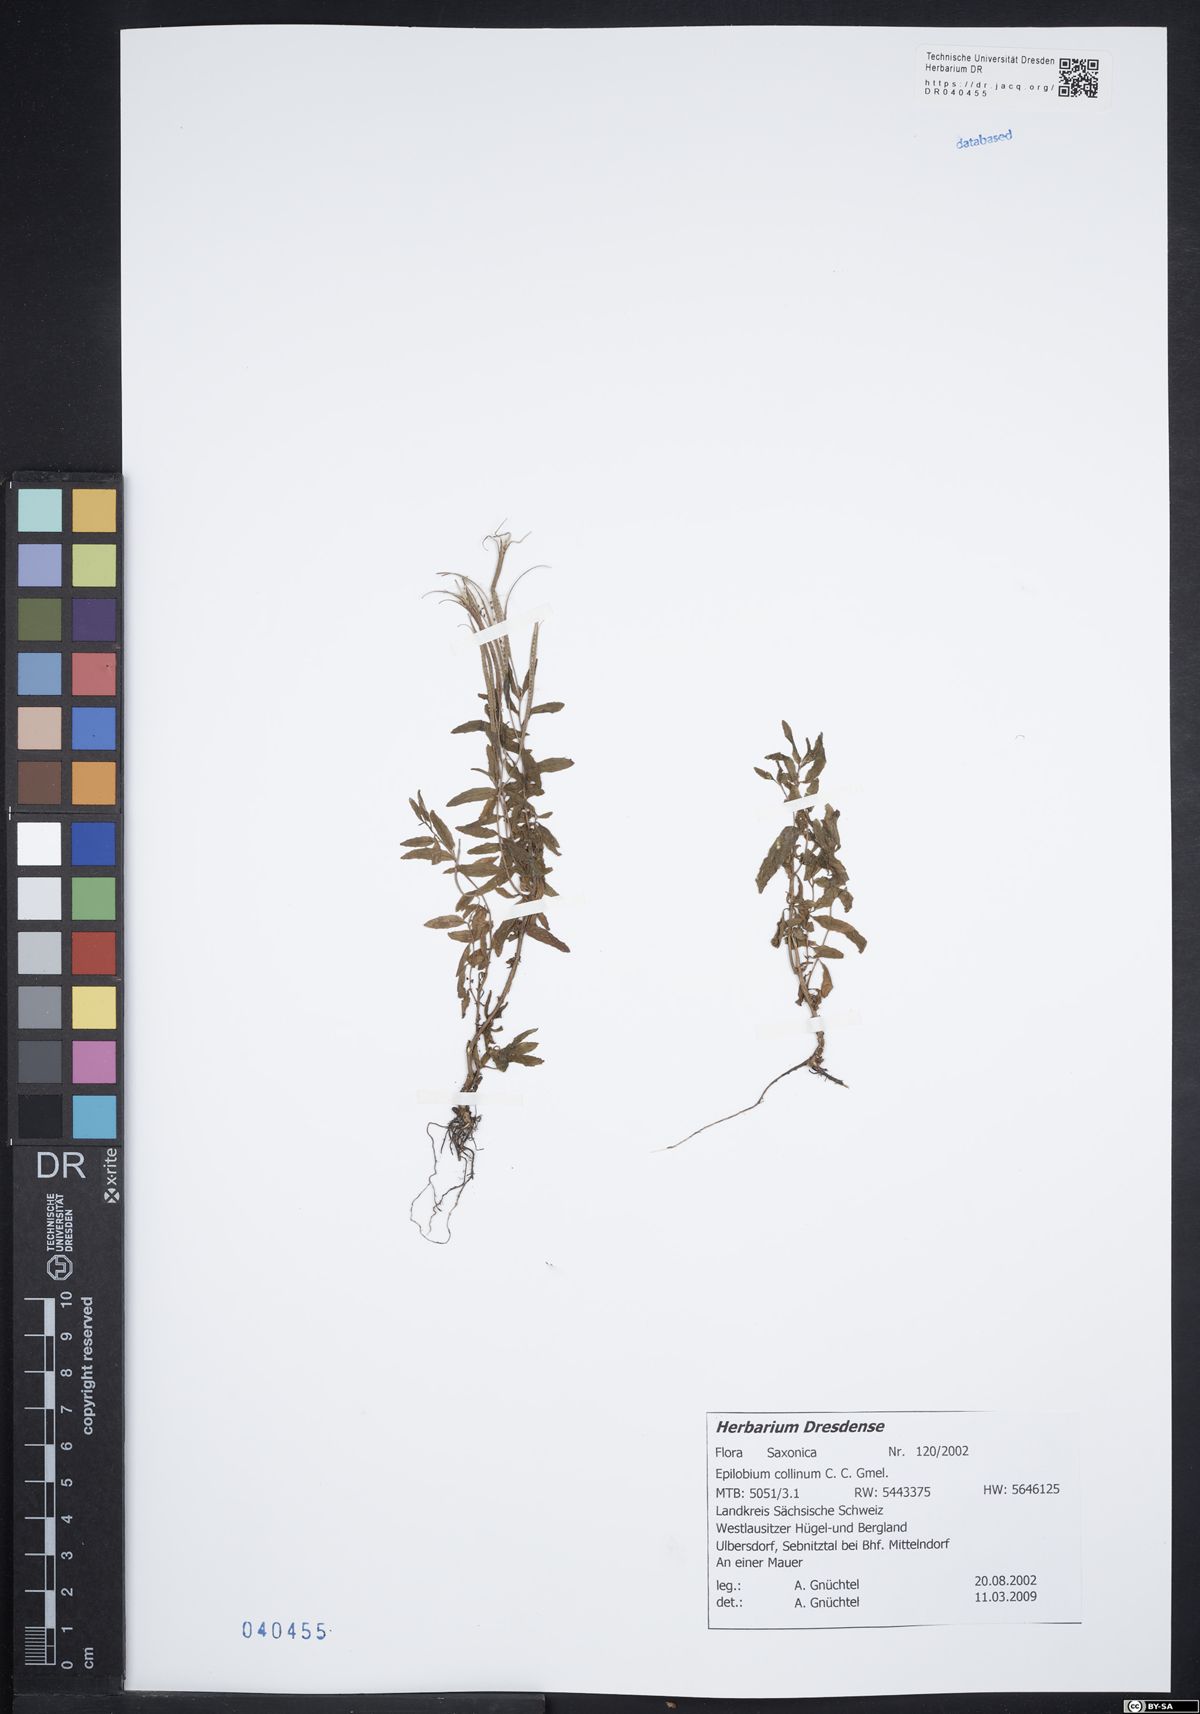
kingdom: Plantae
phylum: Tracheophyta
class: Magnoliopsida
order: Myrtales
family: Onagraceae
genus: Epilobium
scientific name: Epilobium collinum
